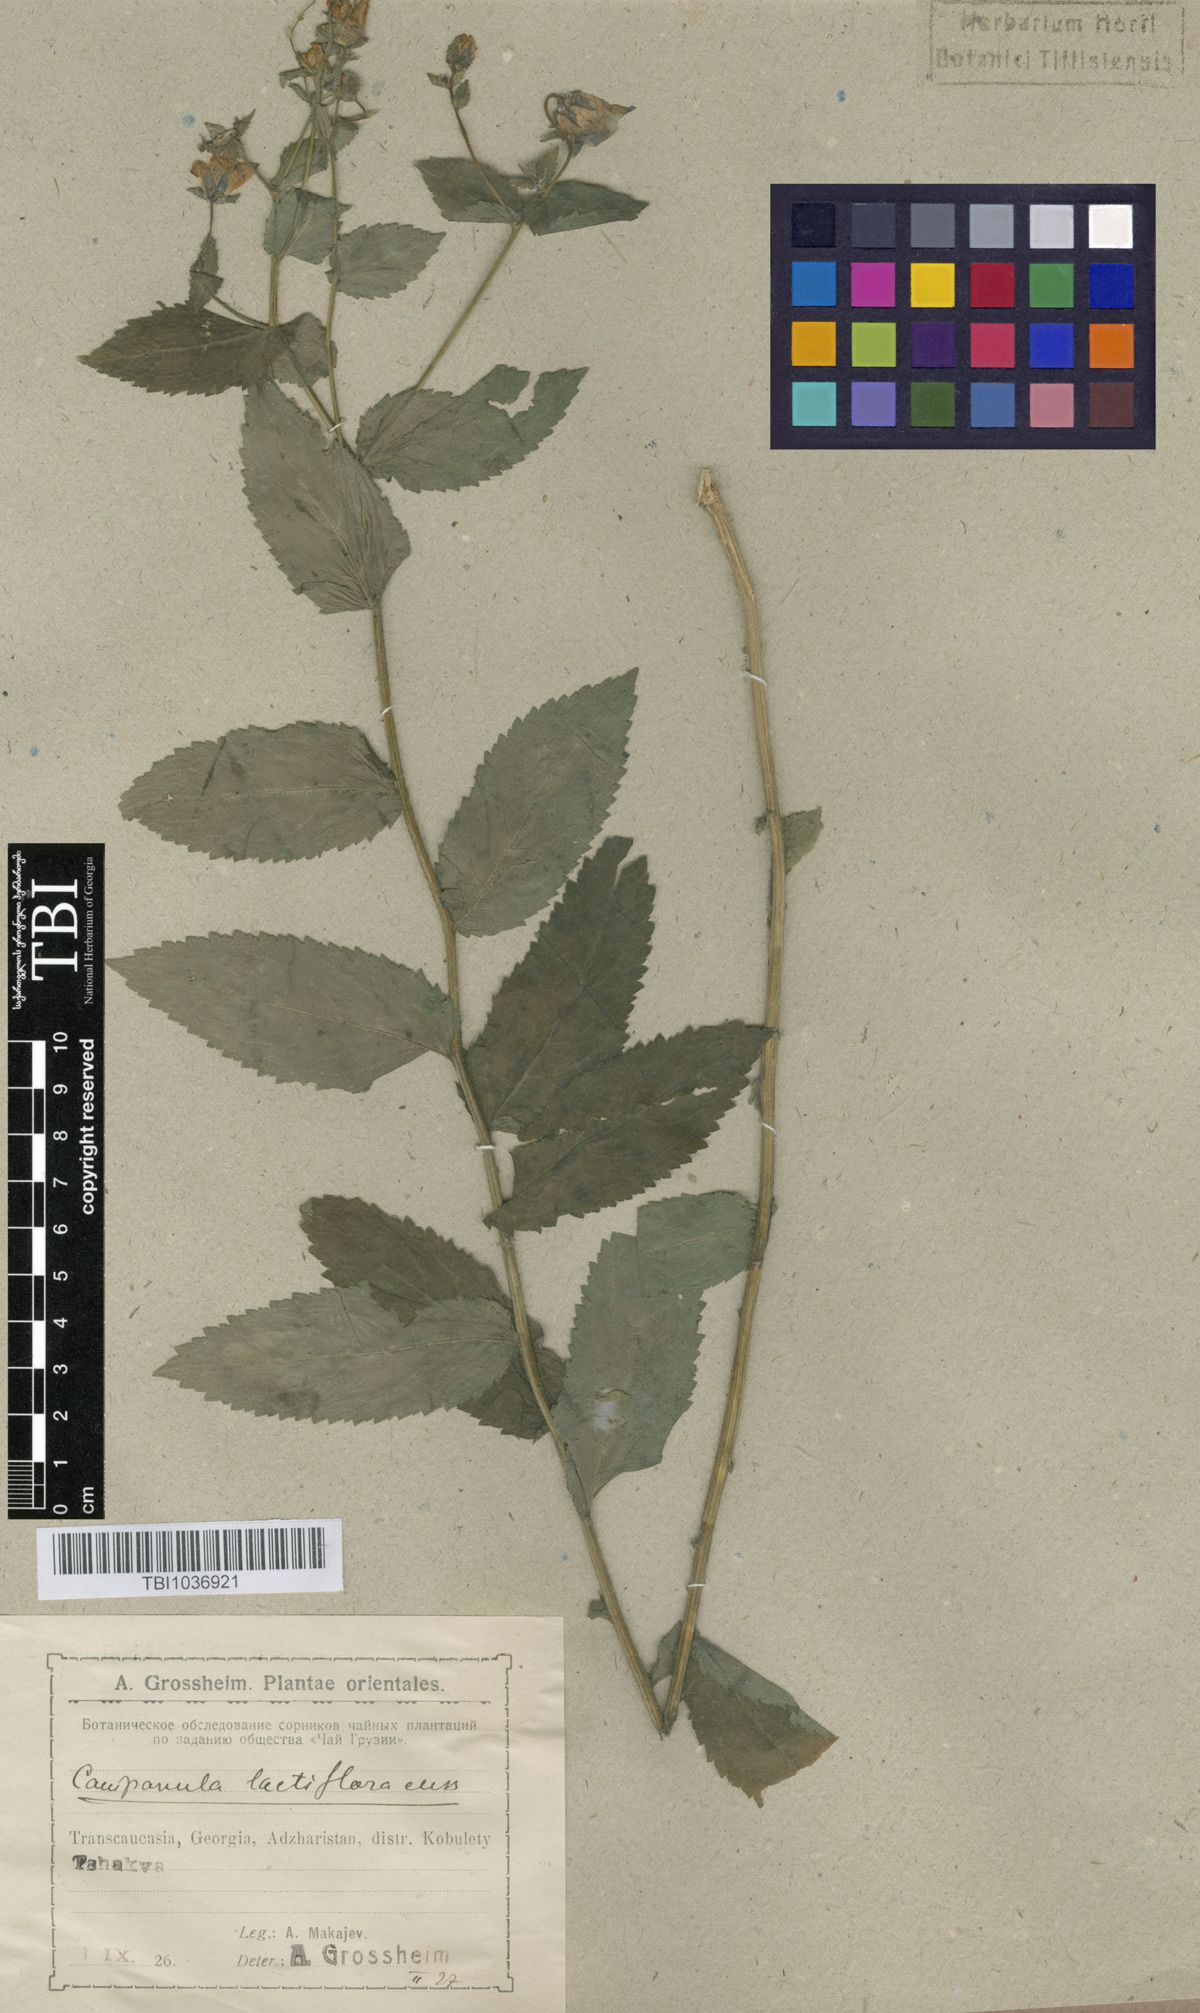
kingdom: Plantae
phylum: Tracheophyta
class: Magnoliopsida
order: Asterales
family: Campanulaceae
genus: Campanula
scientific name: Campanula lactiflora
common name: Milky bellflower
